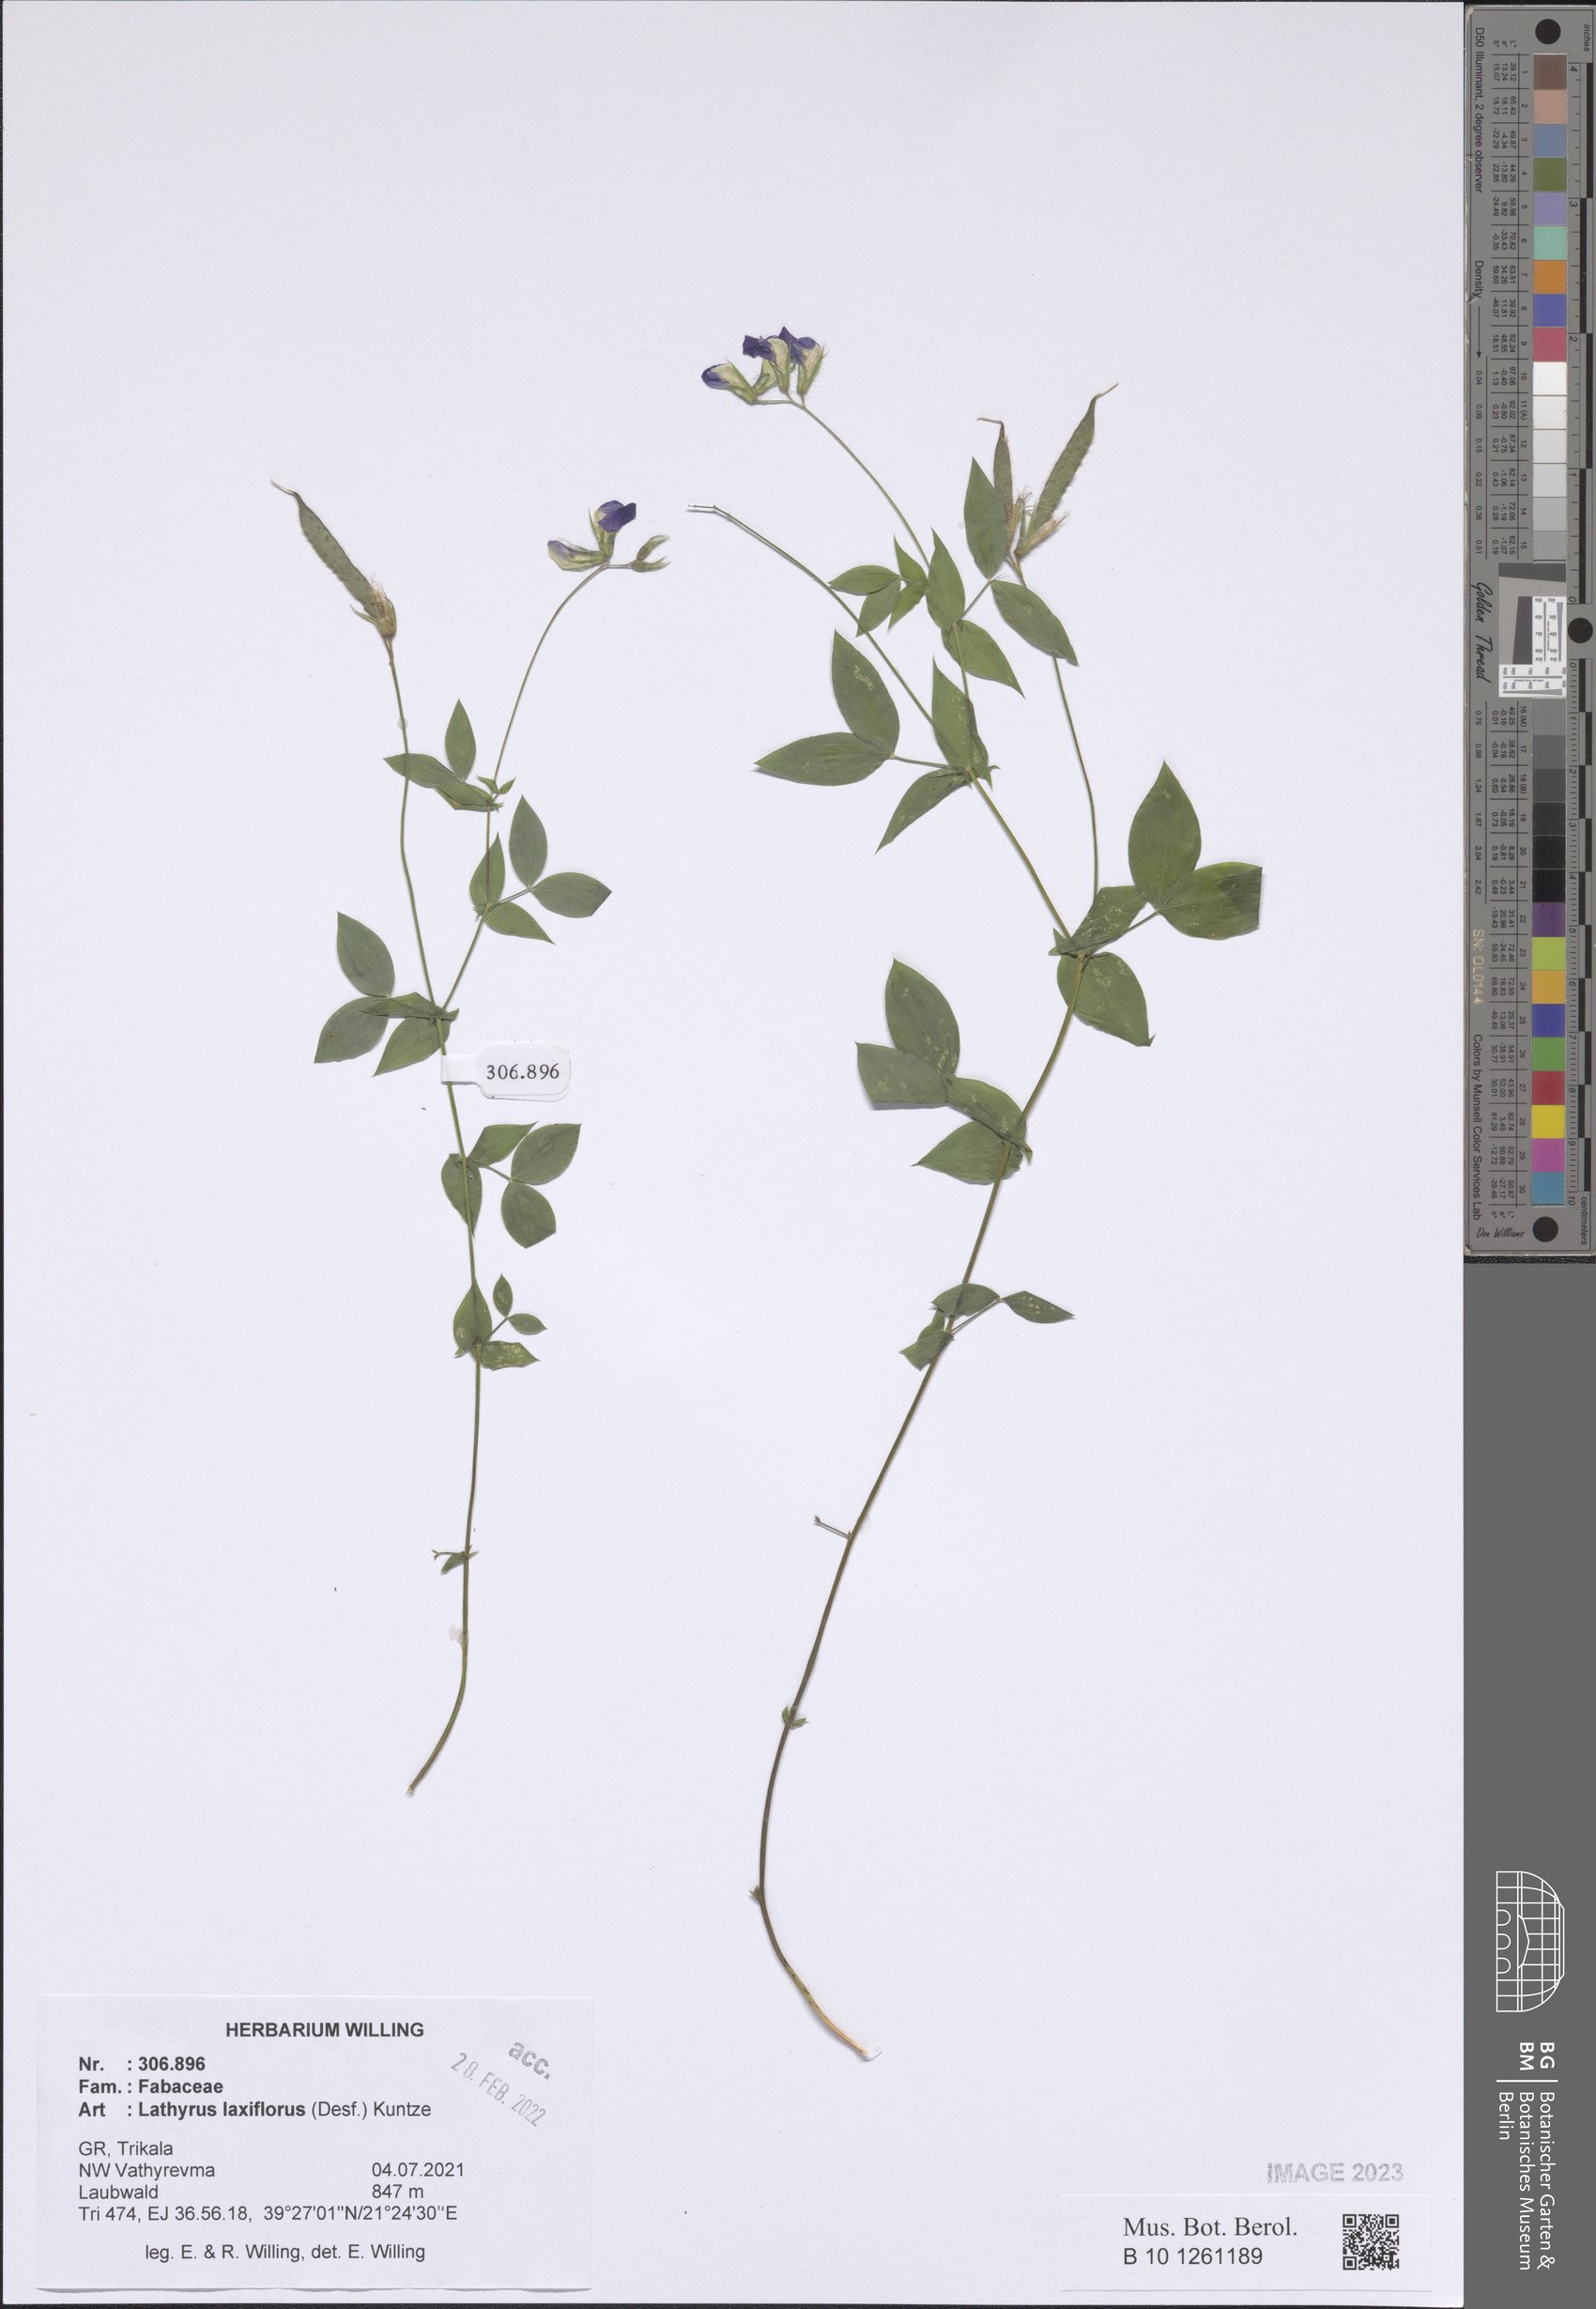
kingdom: Plantae
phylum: Tracheophyta
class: Magnoliopsida
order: Fabales
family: Fabaceae
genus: Lathyrus
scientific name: Lathyrus laxiflorus
